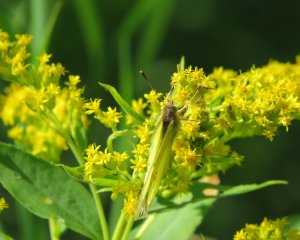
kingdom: Animalia
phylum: Arthropoda
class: Insecta
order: Lepidoptera
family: Pieridae
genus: Colias
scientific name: Colias philodice
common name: Clouded Sulphur
